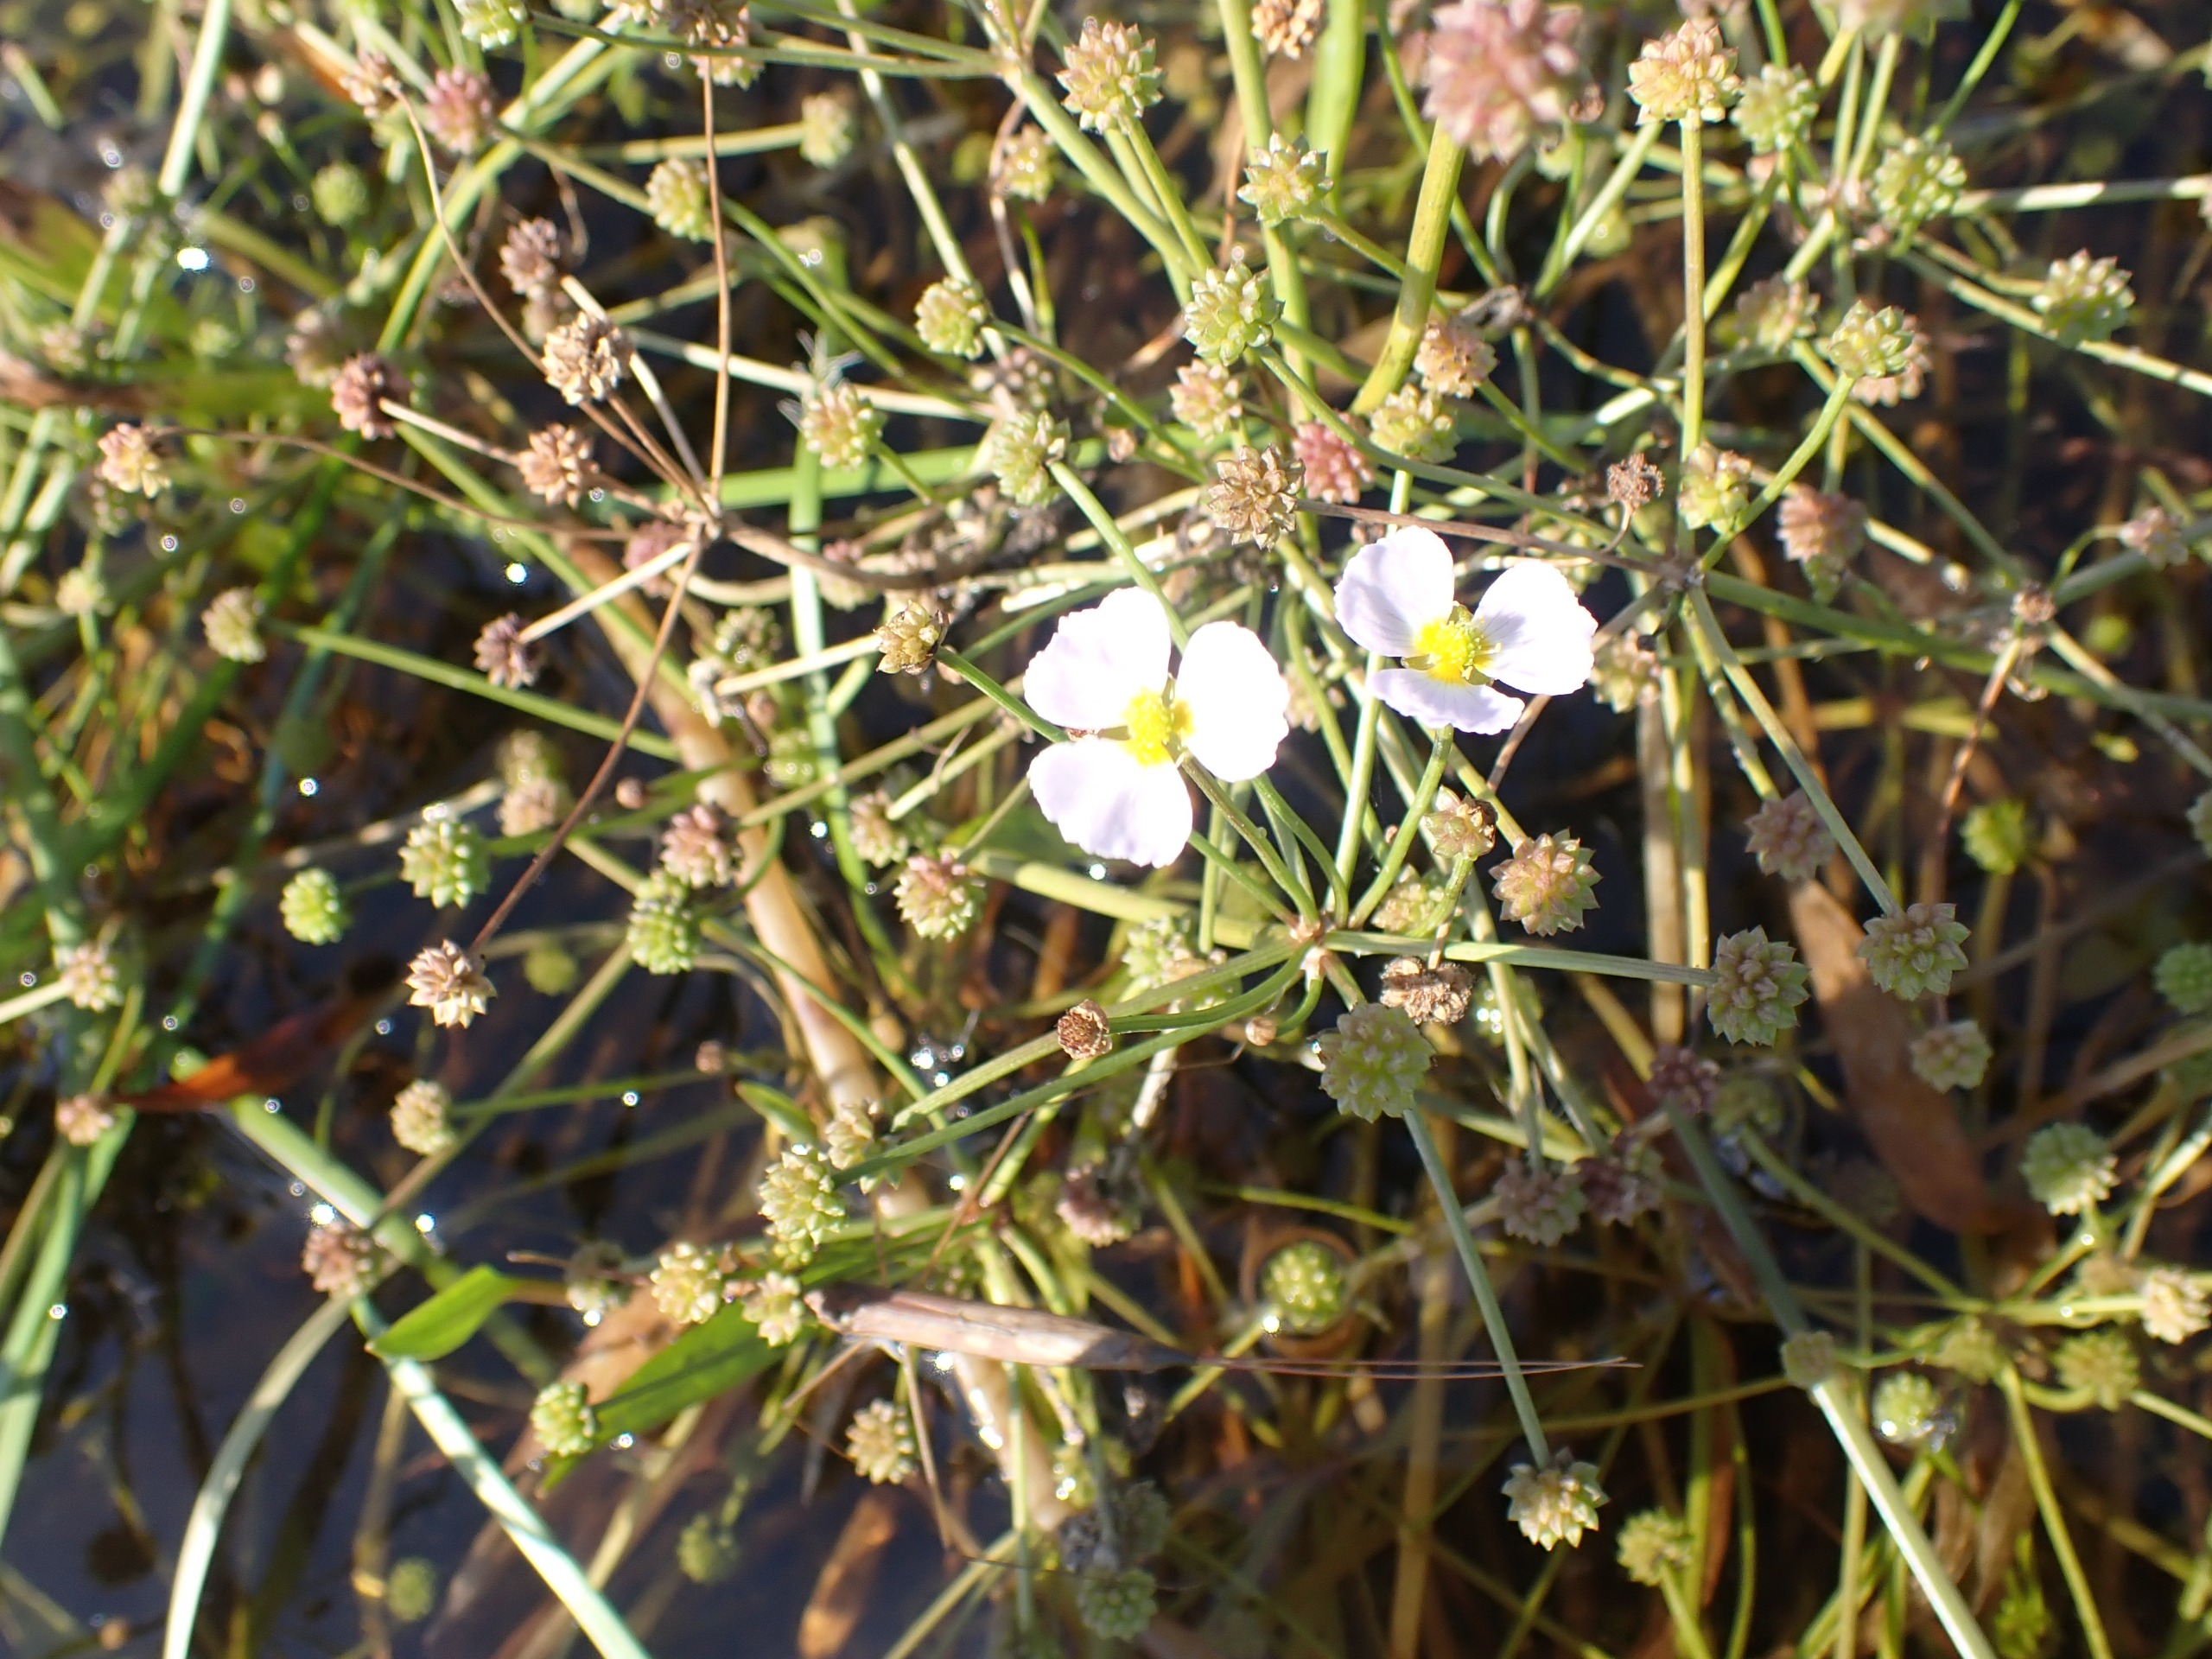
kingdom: Plantae
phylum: Tracheophyta
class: Liliopsida
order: Alismatales
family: Alismataceae
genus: Baldellia
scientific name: Baldellia ranunculoides
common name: Søpryd
